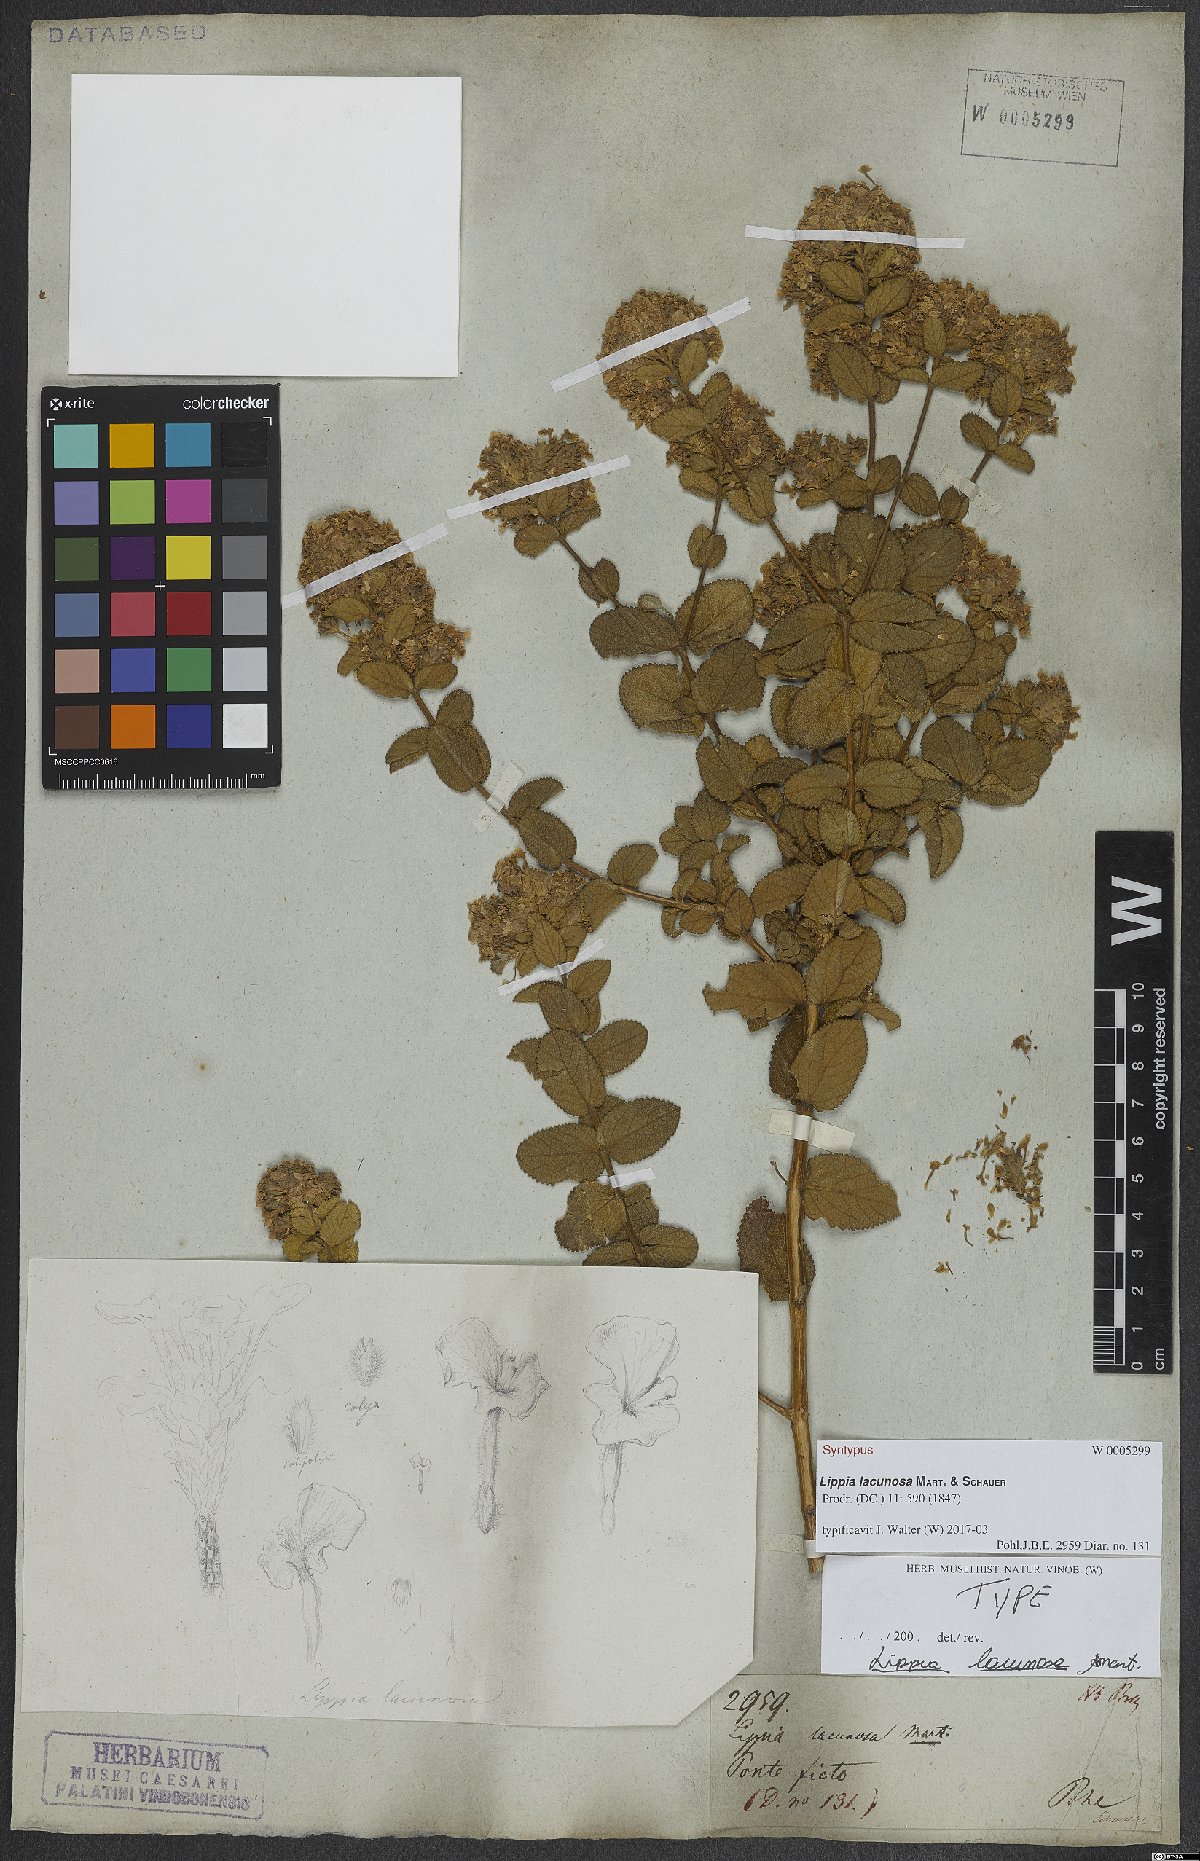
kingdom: Plantae
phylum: Tracheophyta
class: Magnoliopsida
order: Lamiales
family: Verbenaceae
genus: Lippia
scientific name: Lippia lacunosa
